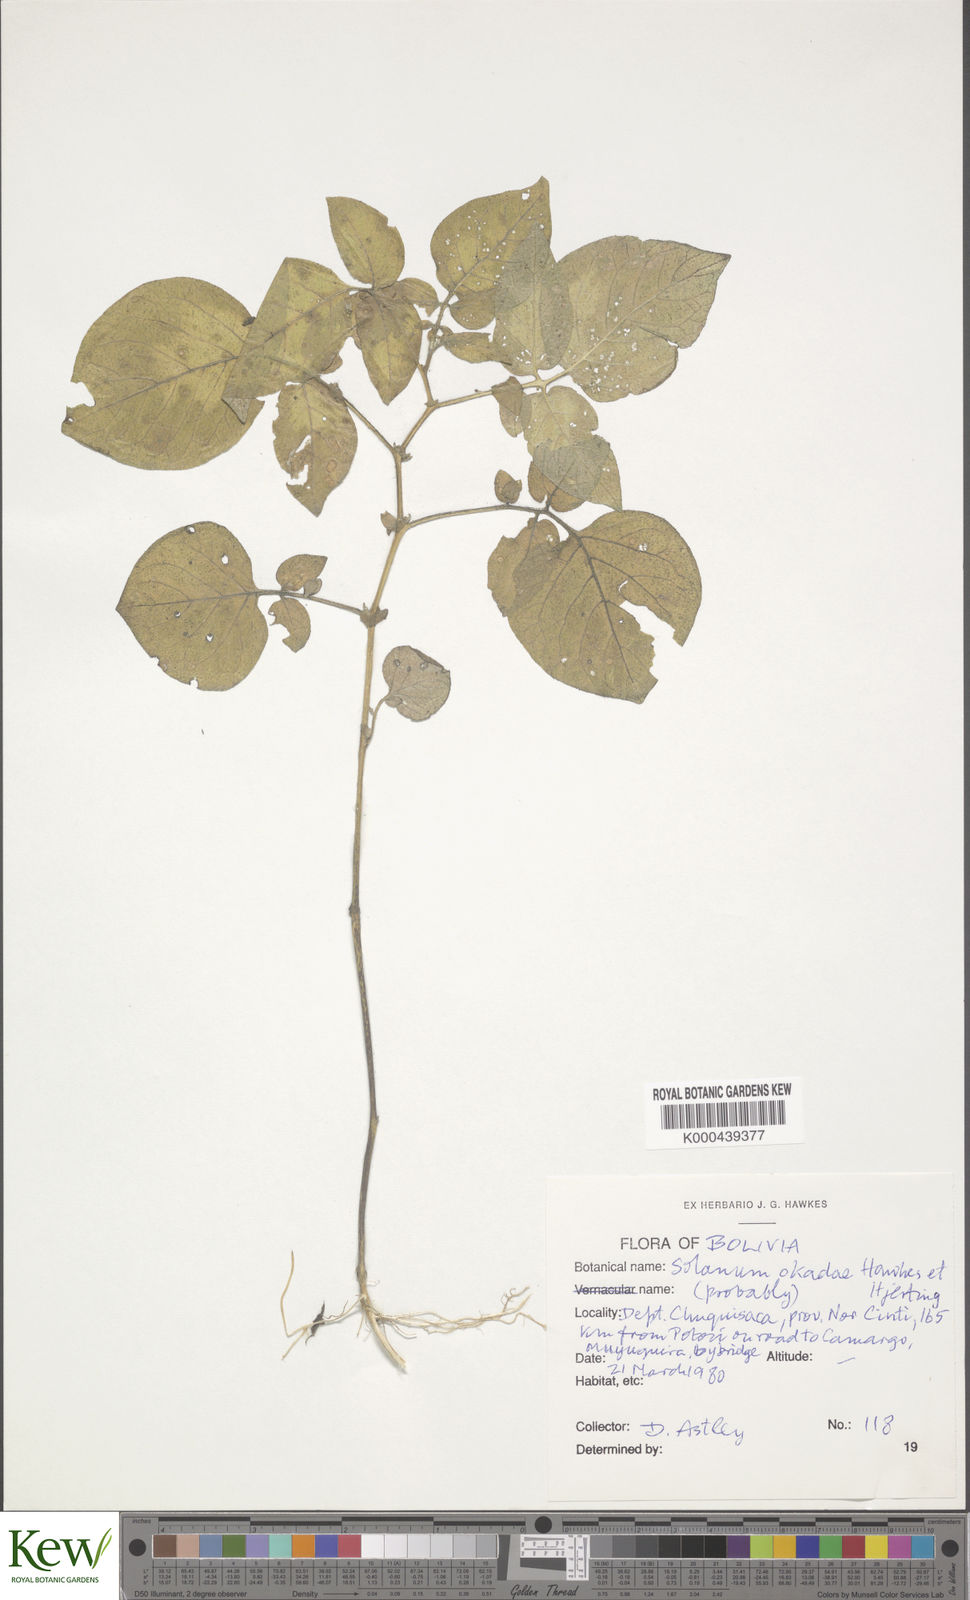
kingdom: Plantae
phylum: Tracheophyta
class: Magnoliopsida
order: Solanales
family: Solanaceae
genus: Solanum
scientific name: Solanum okadae
